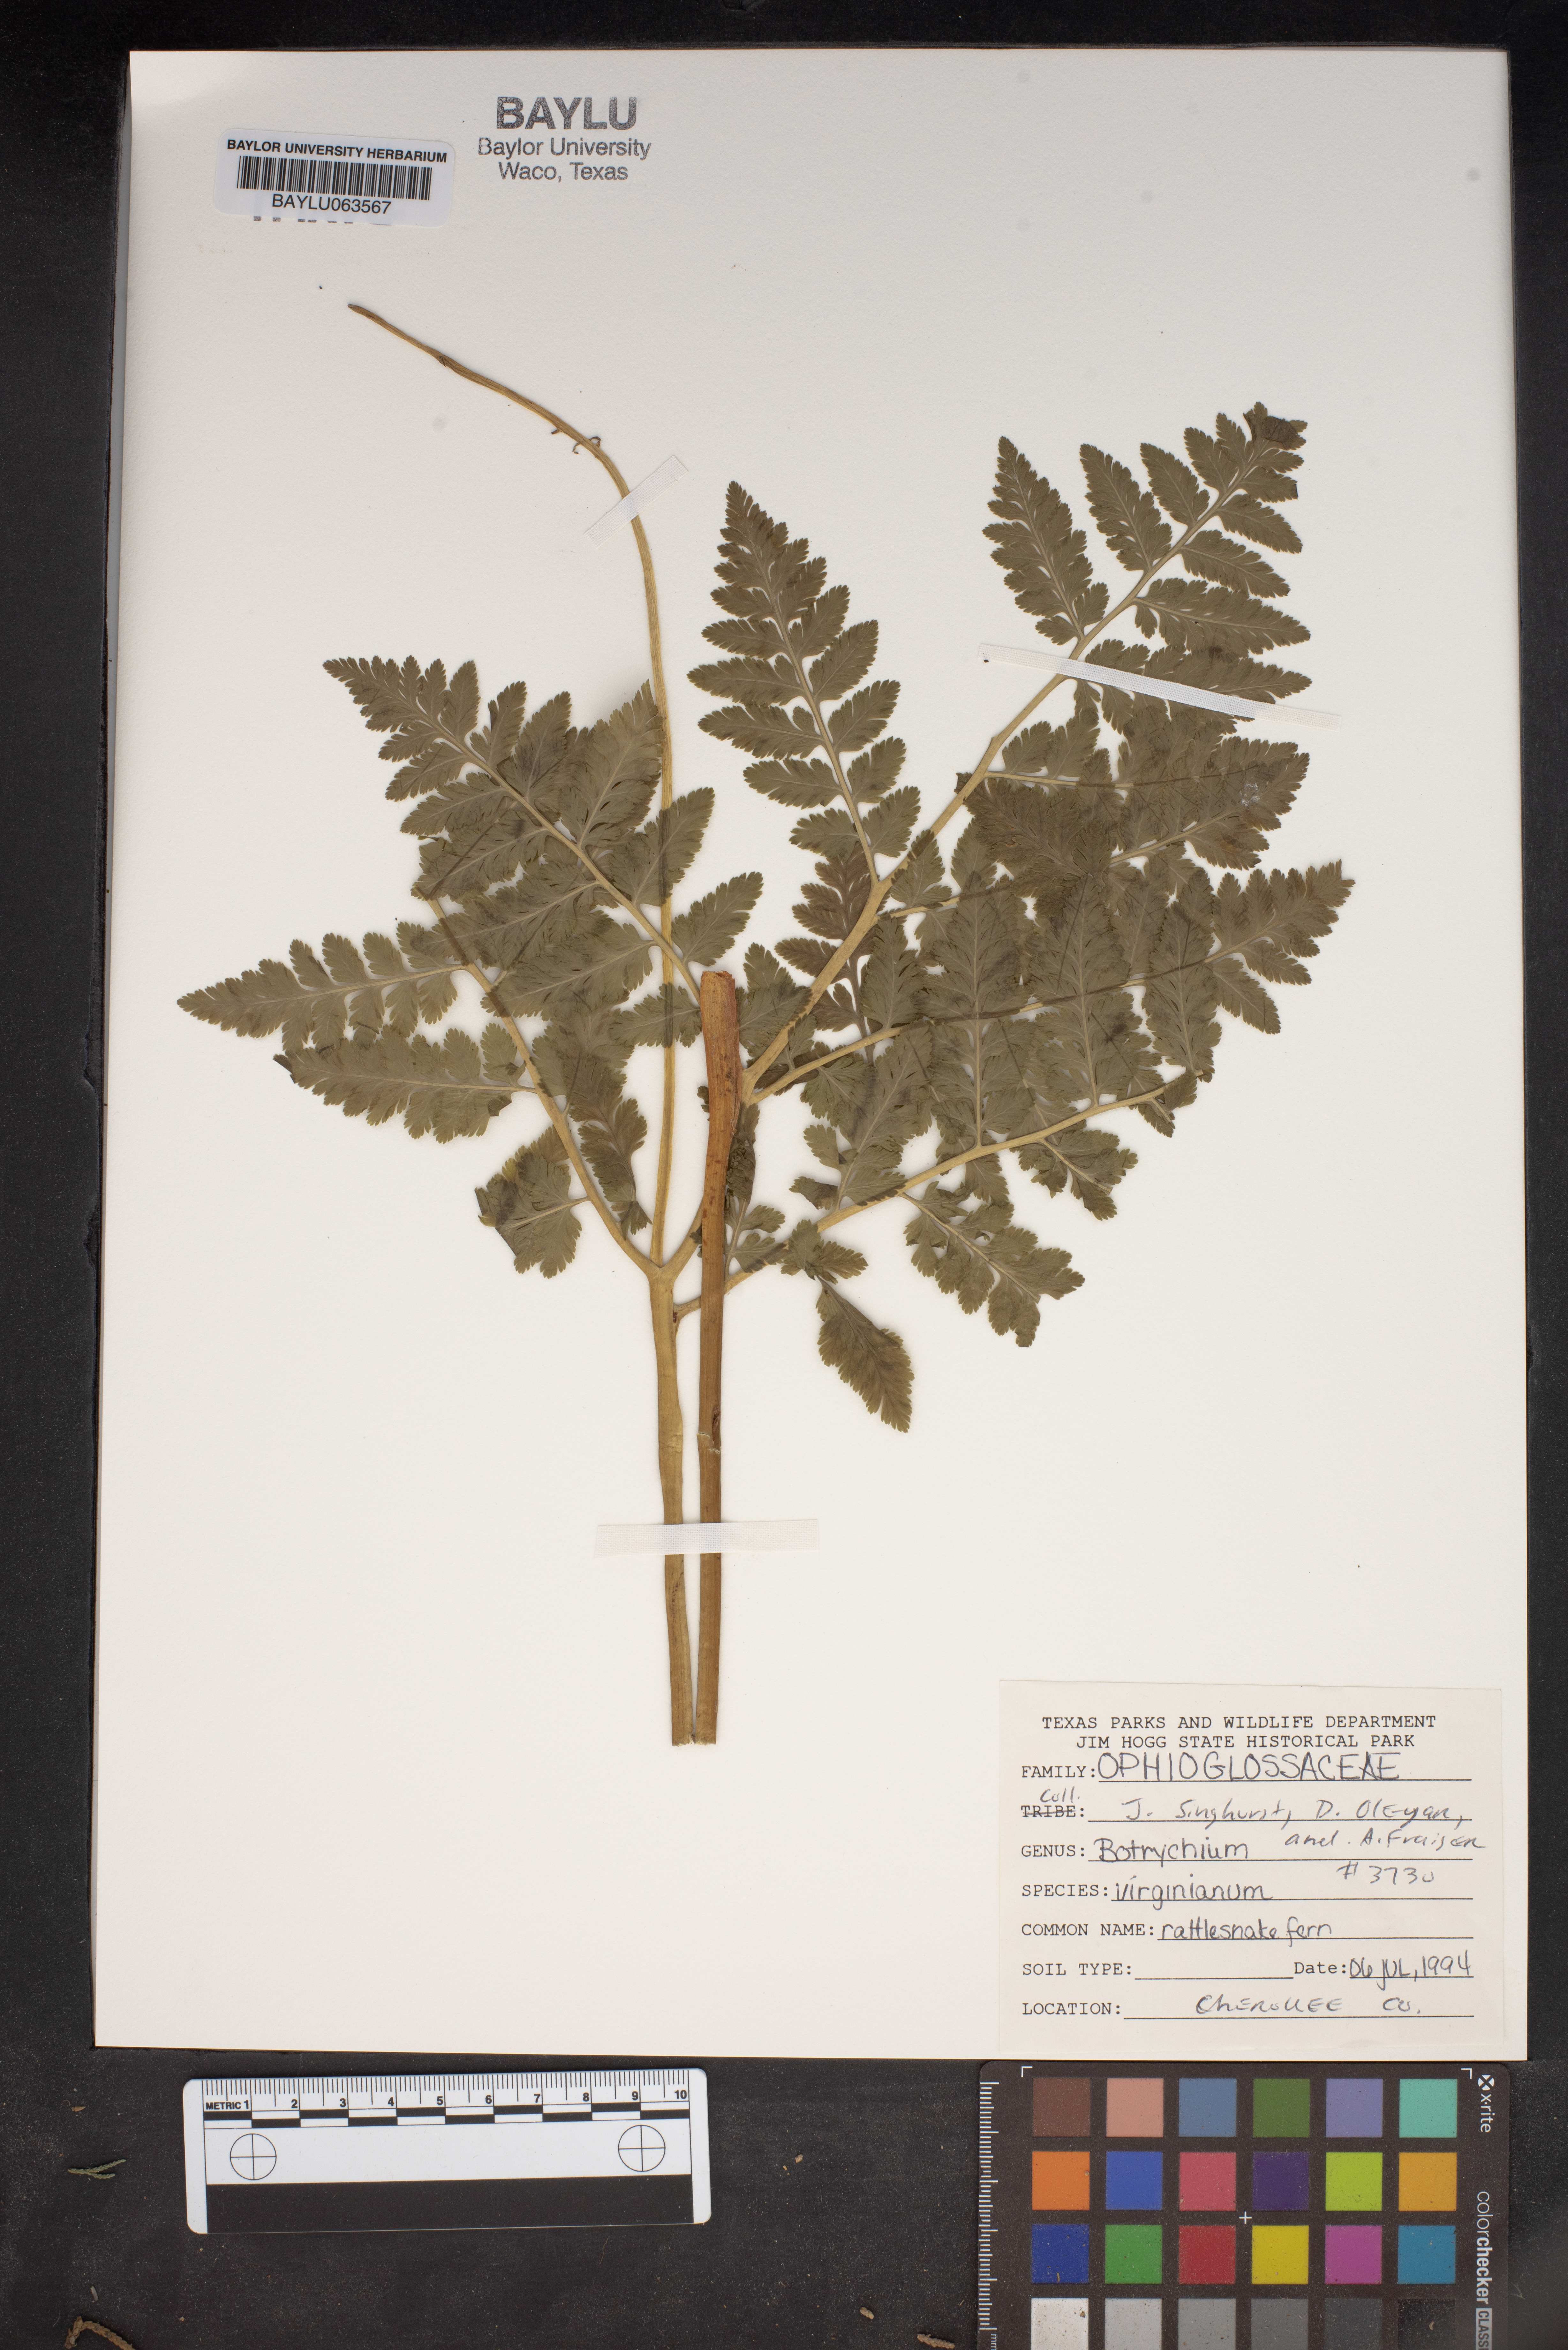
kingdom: Plantae
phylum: Tracheophyta
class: Polypodiopsida
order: Ophioglossales
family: Ophioglossaceae
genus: Botrypus
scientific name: Botrypus virginianus
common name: Common grapefern
